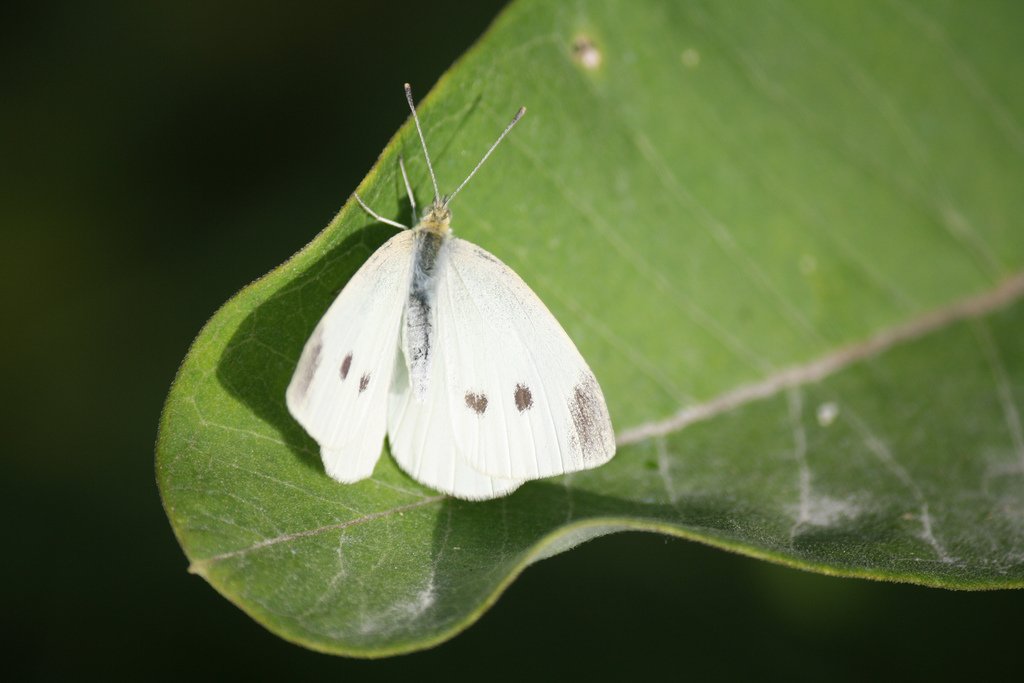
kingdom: Animalia
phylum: Arthropoda
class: Insecta
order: Lepidoptera
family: Pieridae
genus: Pieris
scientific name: Pieris rapae
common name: Cabbage White
